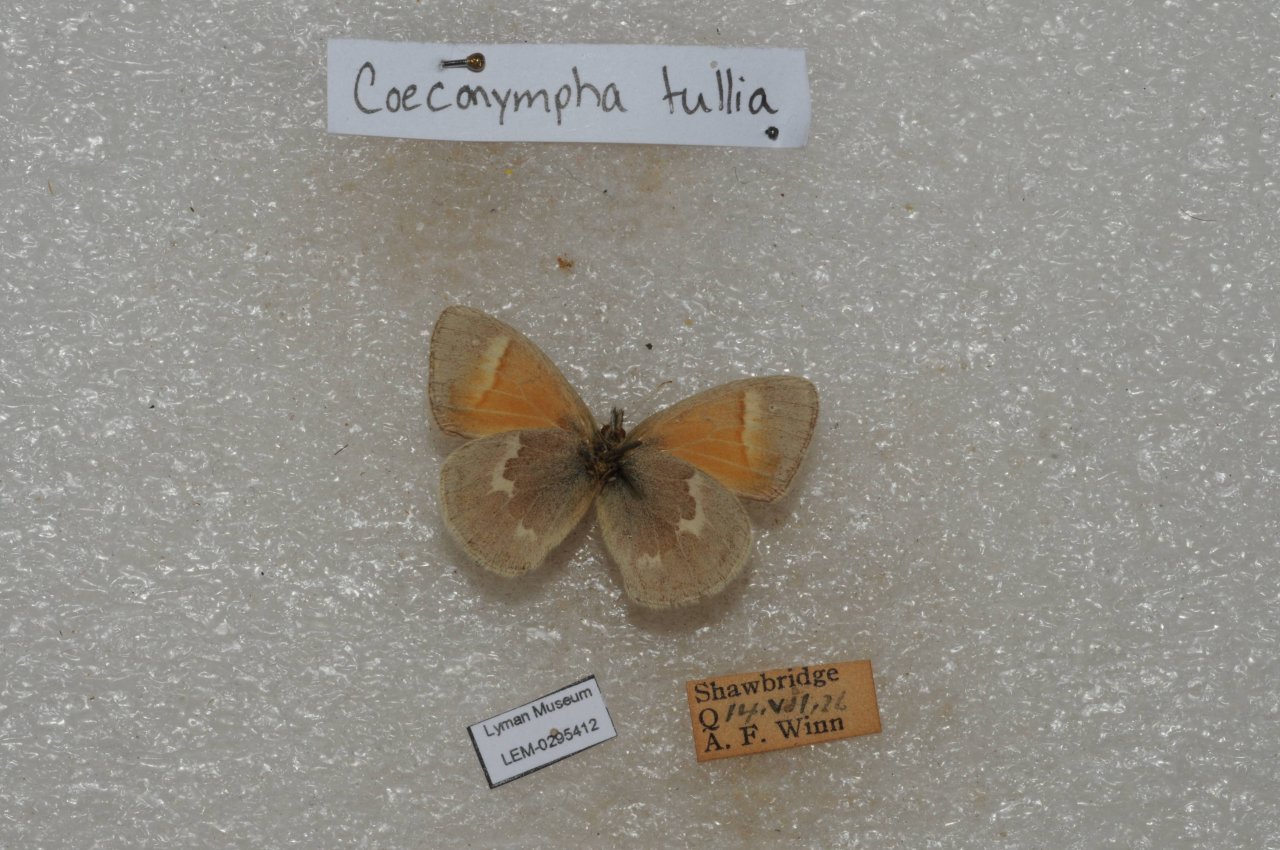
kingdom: Animalia
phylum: Arthropoda
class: Insecta
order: Lepidoptera
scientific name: Lepidoptera
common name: Butterflies
